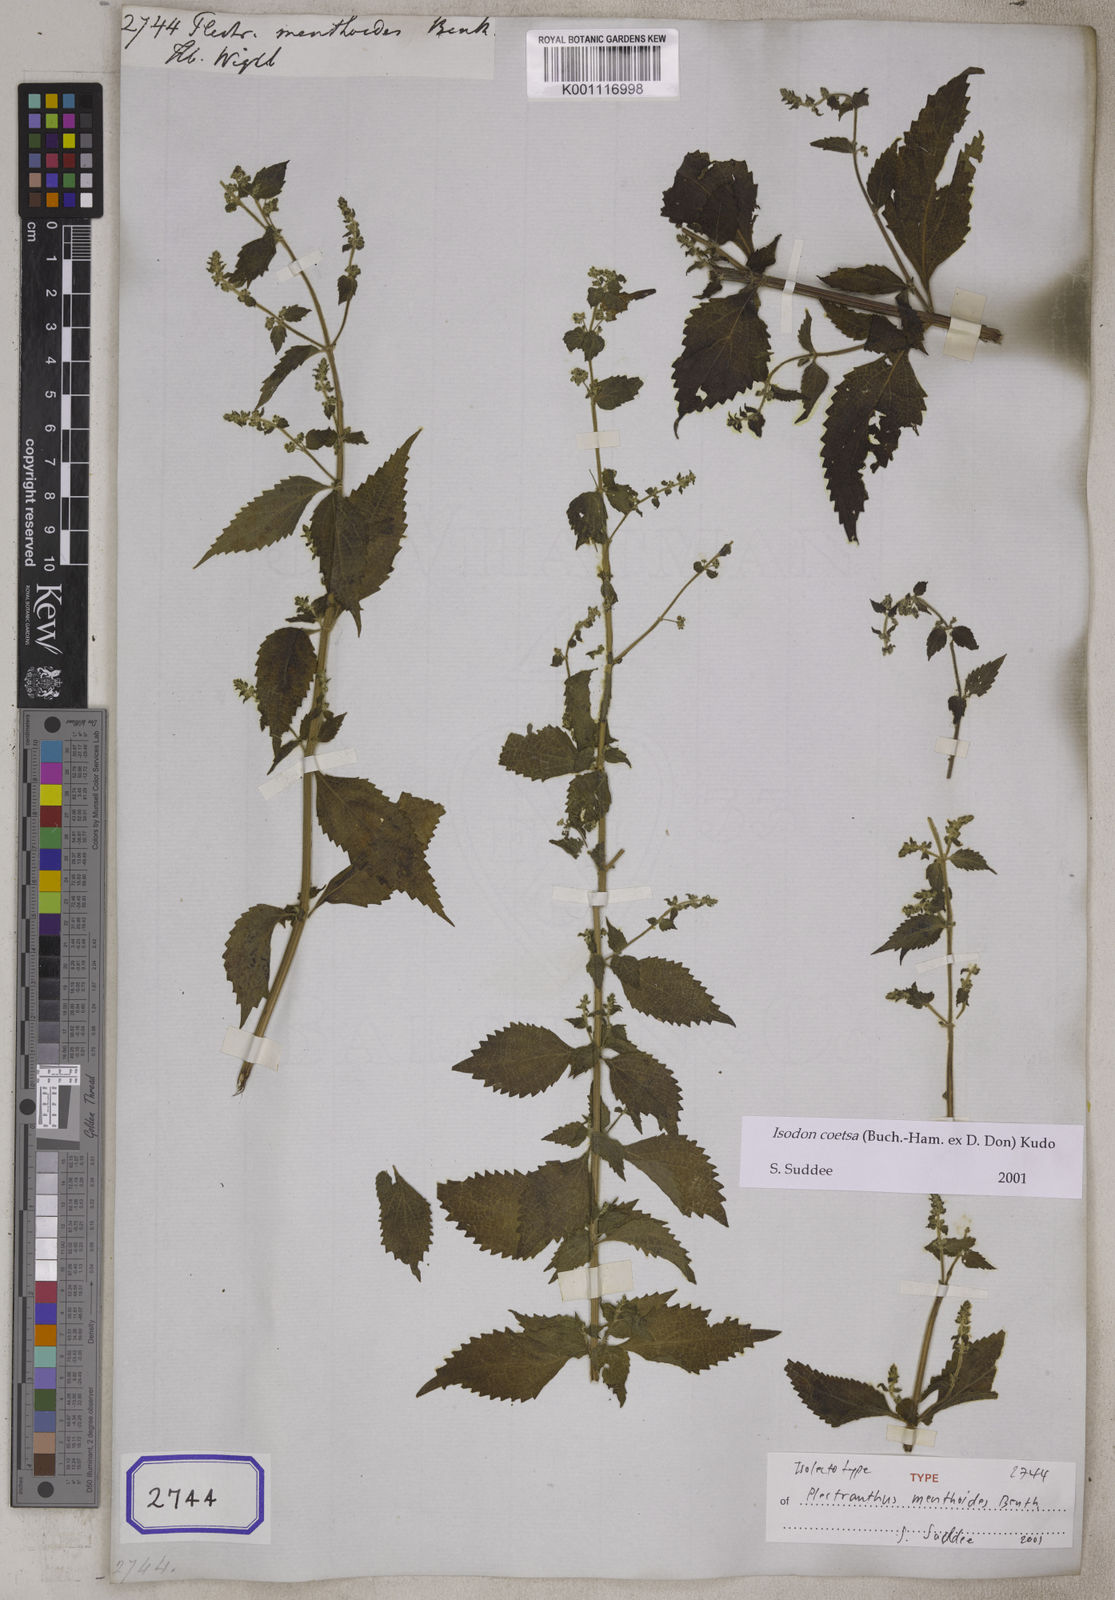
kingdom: Plantae
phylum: Tracheophyta
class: Magnoliopsida
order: Lamiales
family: Lamiaceae
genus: Isodon
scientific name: Isodon coetsa
